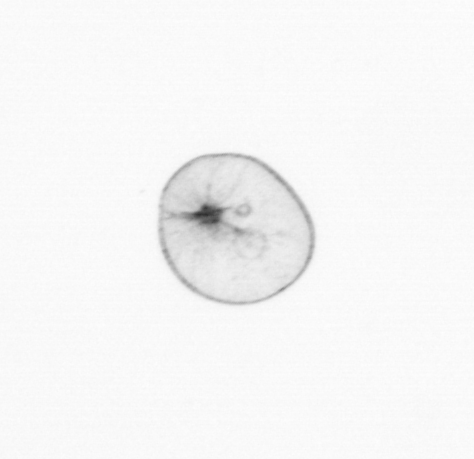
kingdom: Chromista
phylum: Myzozoa
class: Dinophyceae
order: Noctilucales
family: Noctilucaceae
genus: Noctiluca
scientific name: Noctiluca scintillans
